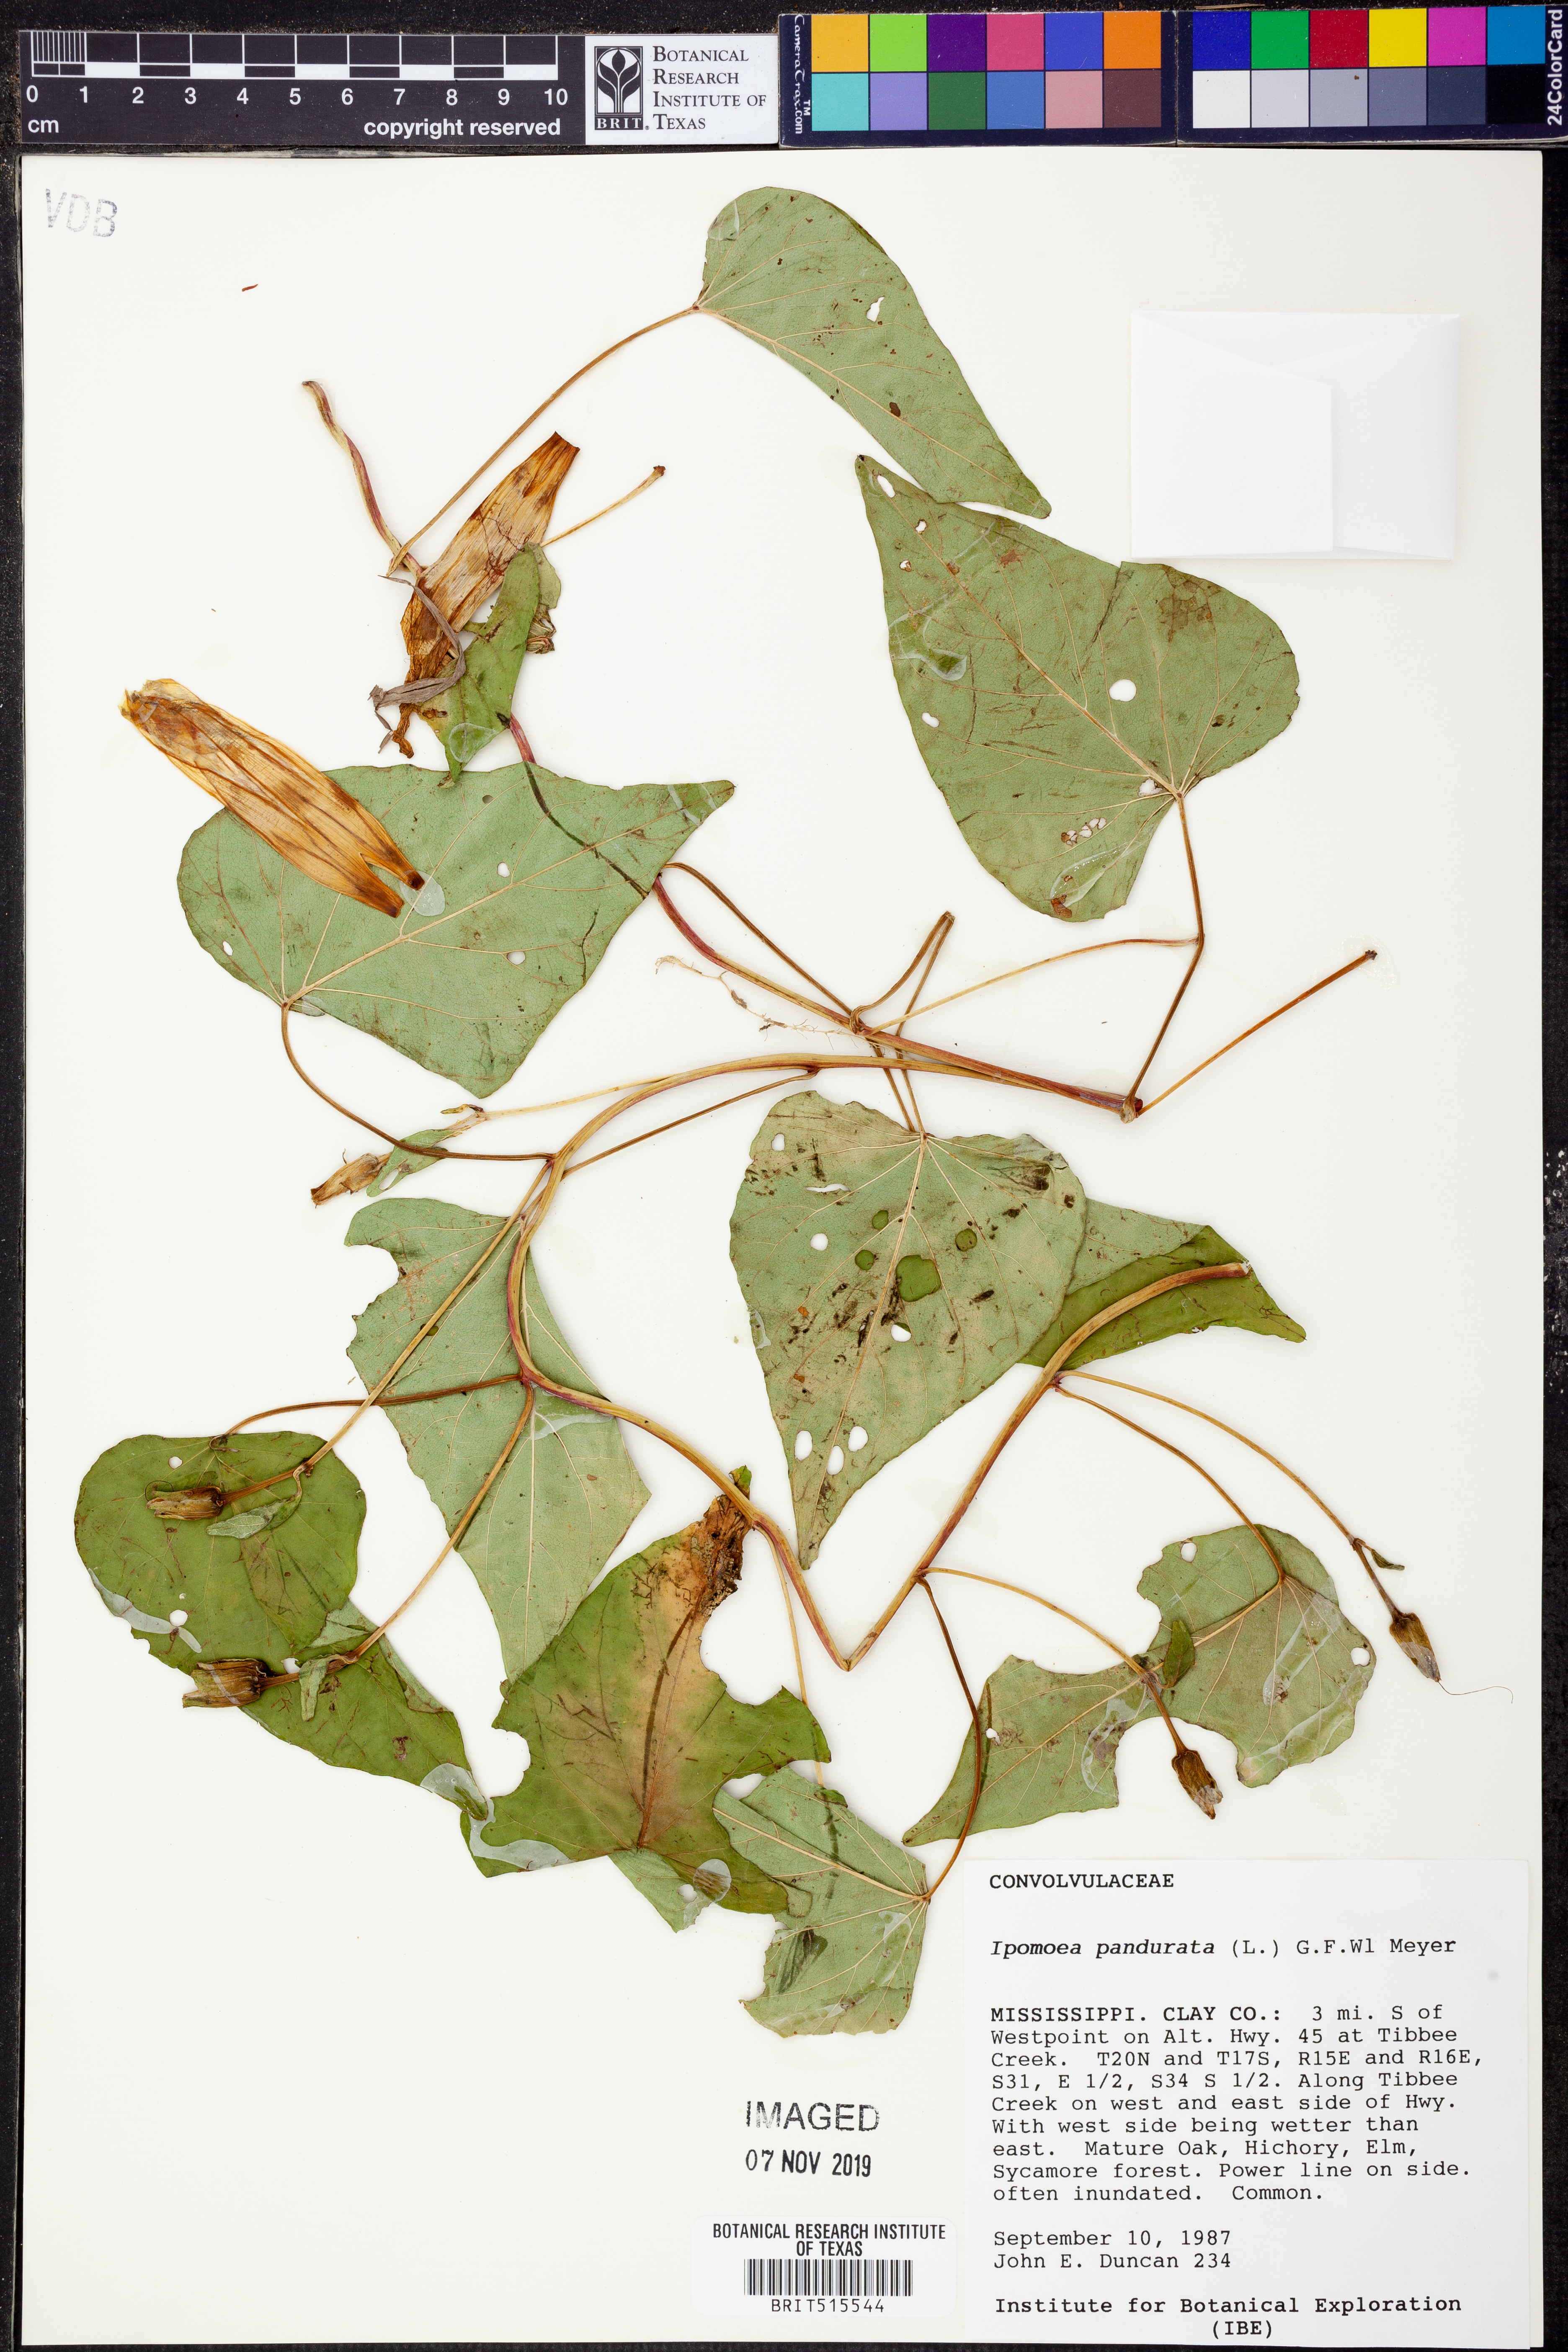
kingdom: Plantae
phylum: Tracheophyta
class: Magnoliopsida
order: Solanales
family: Convolvulaceae
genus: Ipomoea
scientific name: Ipomoea pandurata
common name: Man-of-the-earth
